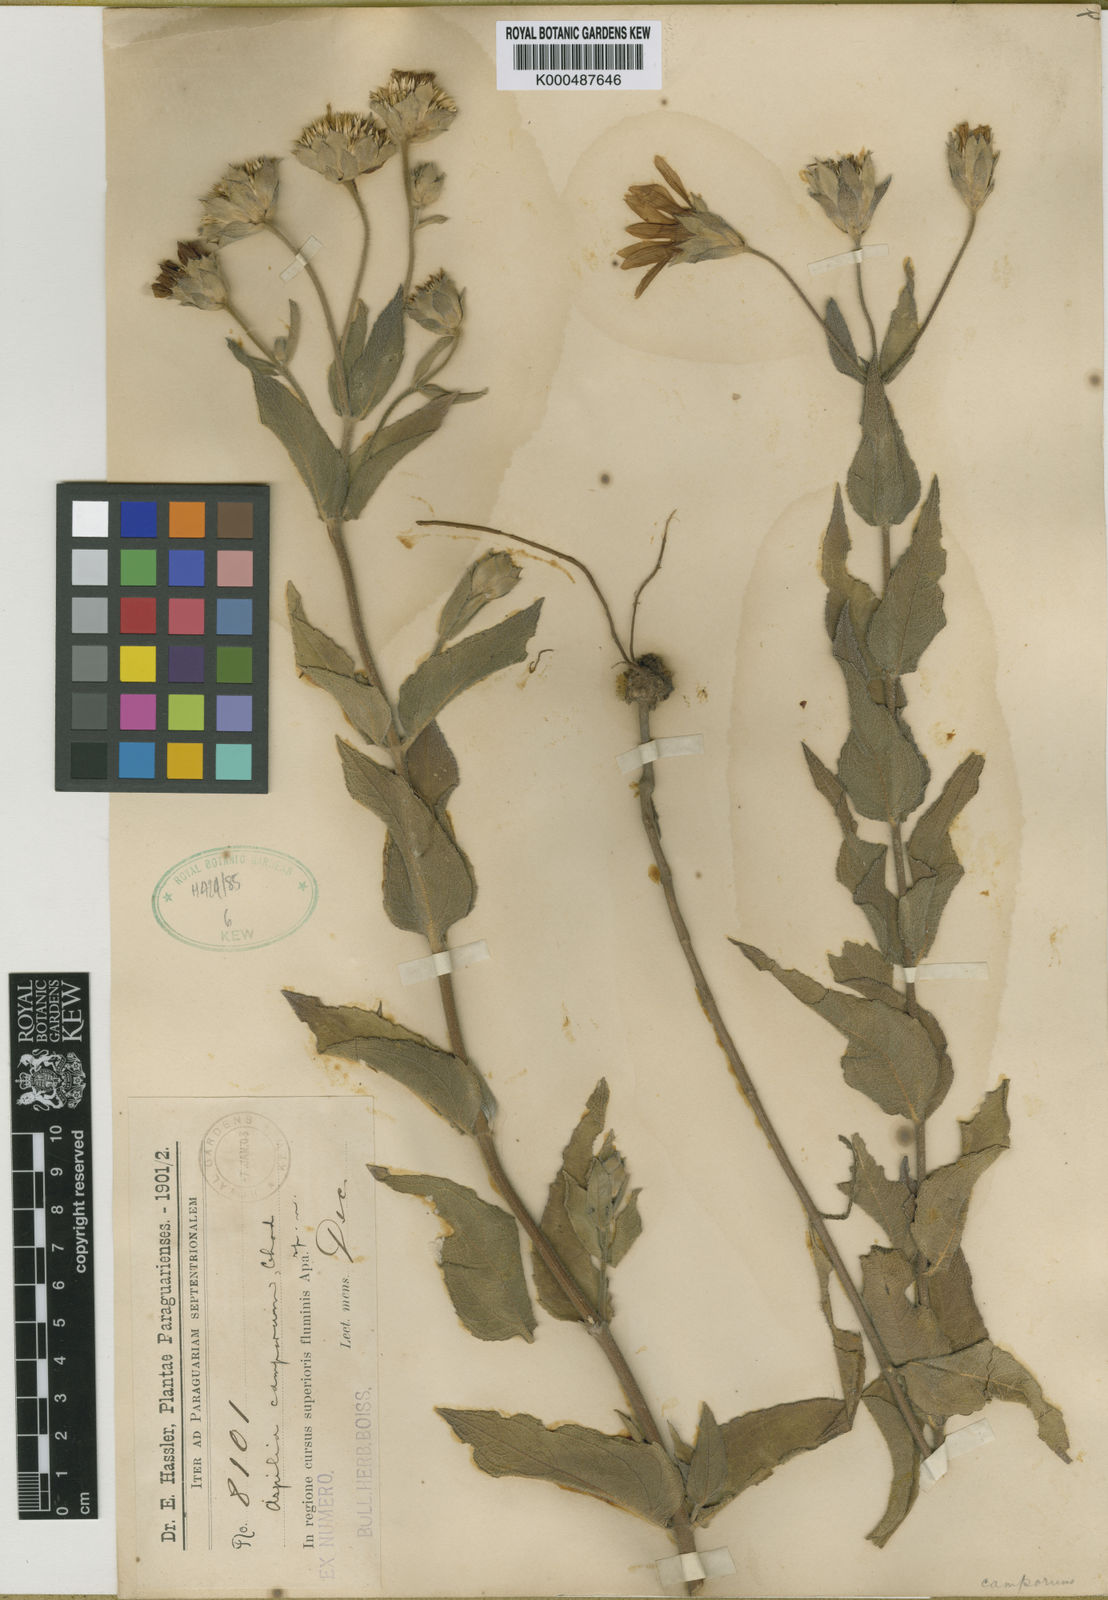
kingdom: Plantae
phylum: Tracheophyta
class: Magnoliopsida
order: Asterales
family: Asteraceae
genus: Wedelia
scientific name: Wedelia camporum
